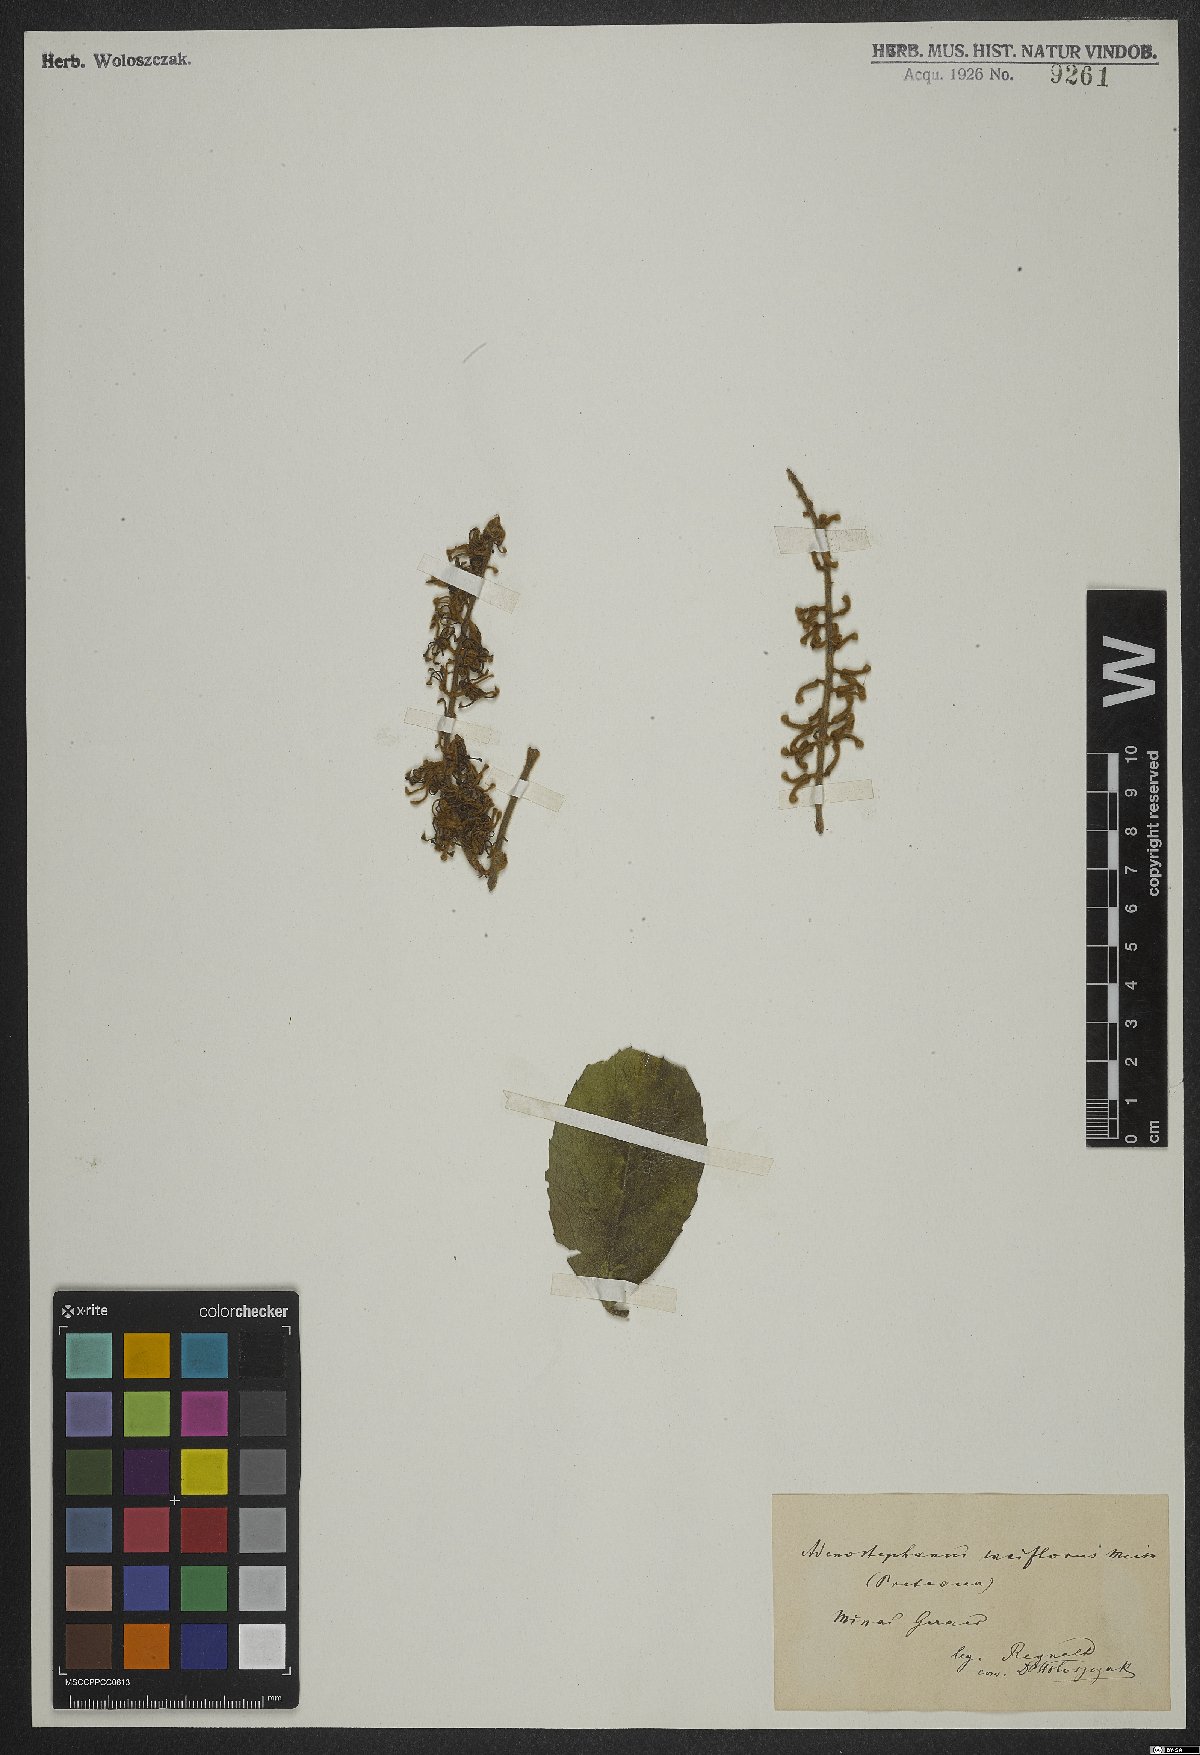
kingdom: Plantae
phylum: Tracheophyta
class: Magnoliopsida
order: Proteales
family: Proteaceae
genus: Euplassa
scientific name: Euplassa
